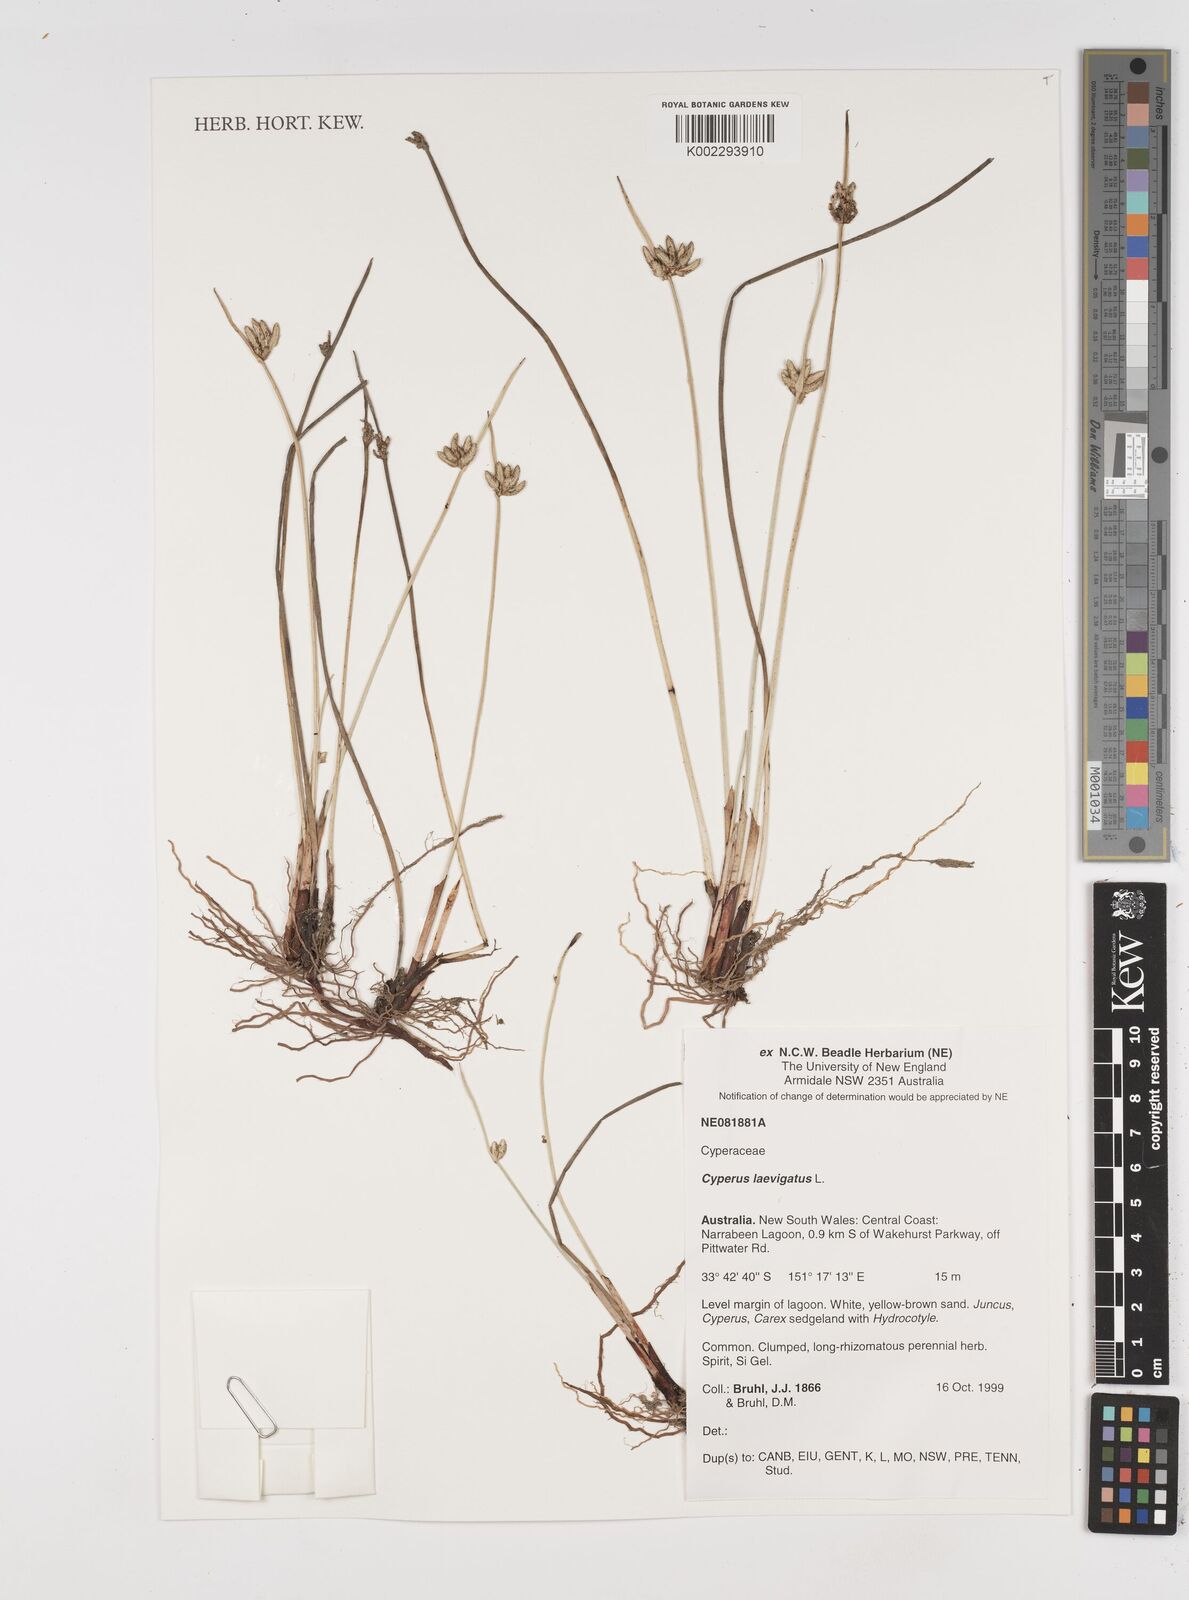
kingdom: Plantae
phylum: Tracheophyta
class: Liliopsida
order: Poales
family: Cyperaceae
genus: Cyperus
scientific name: Cyperus laevigatus
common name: Smooth flat sedge
